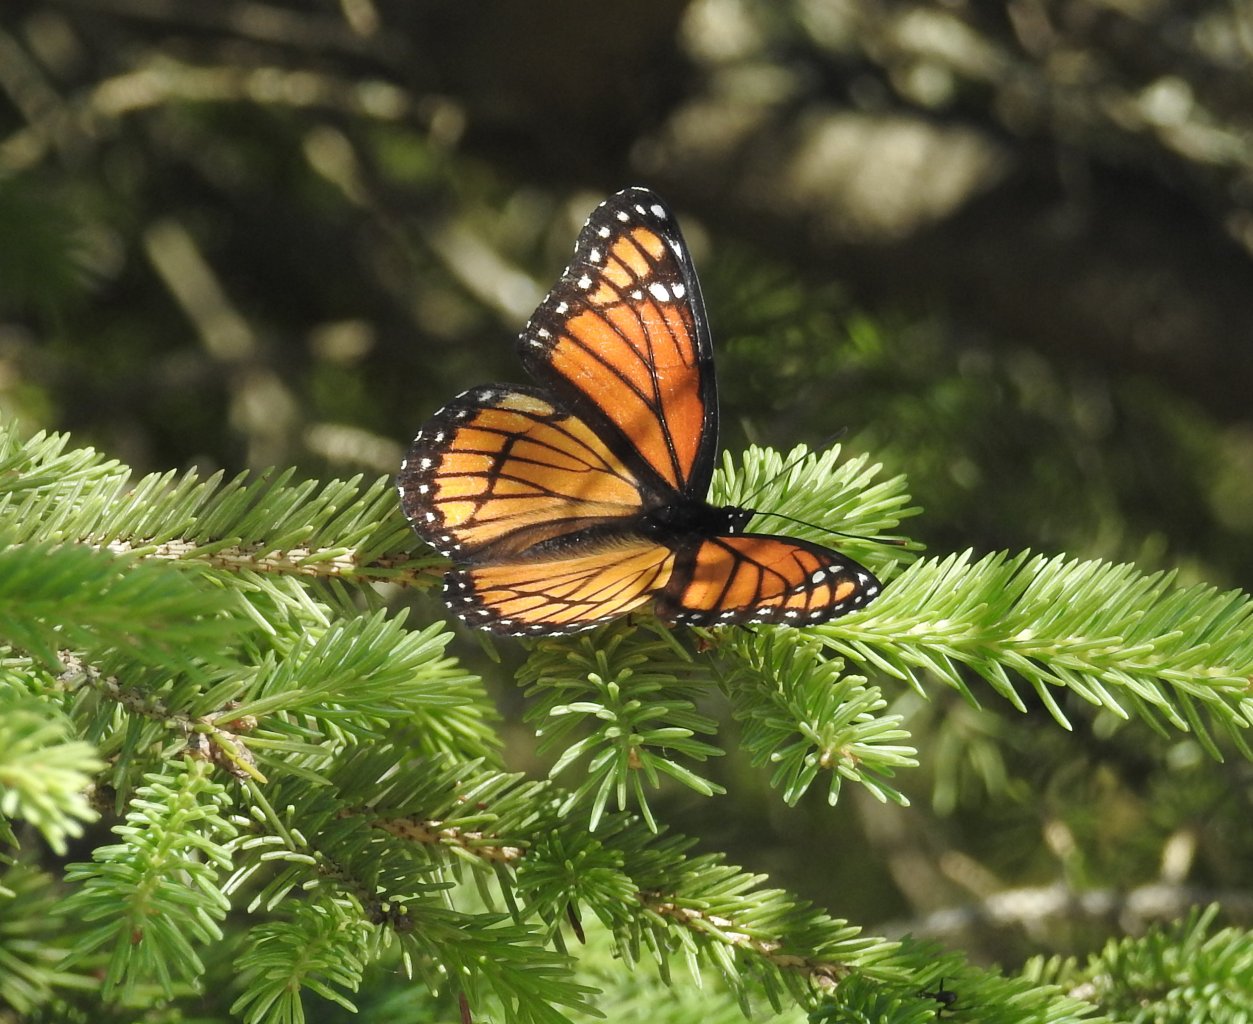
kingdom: Animalia
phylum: Arthropoda
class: Insecta
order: Lepidoptera
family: Nymphalidae
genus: Limenitis
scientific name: Limenitis archippus
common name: Viceroy
